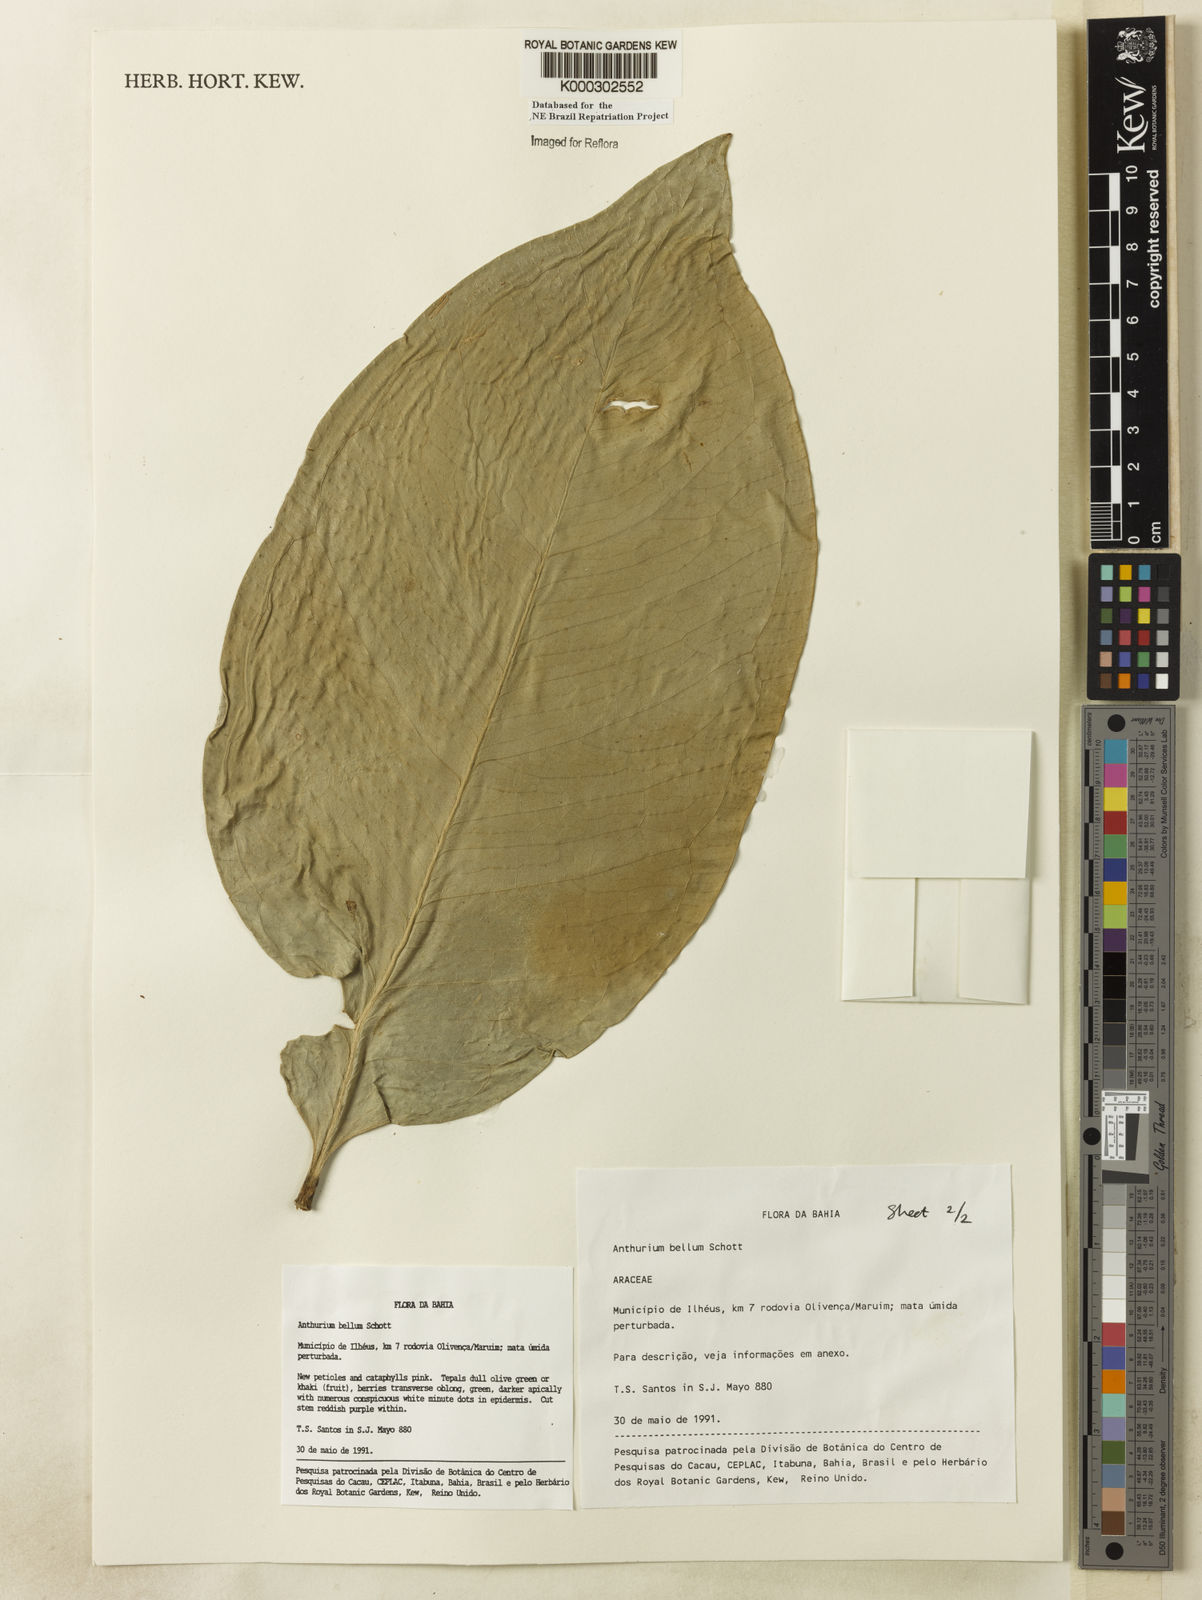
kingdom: Plantae
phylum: Tracheophyta
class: Liliopsida
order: Alismatales
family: Araceae
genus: Anthurium
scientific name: Anthurium bellum
